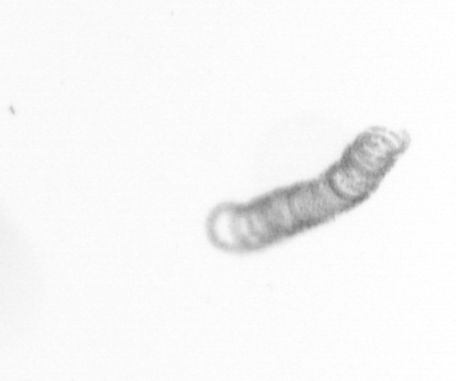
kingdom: Chromista
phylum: Ochrophyta
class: Bacillariophyceae
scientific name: Bacillariophyceae
